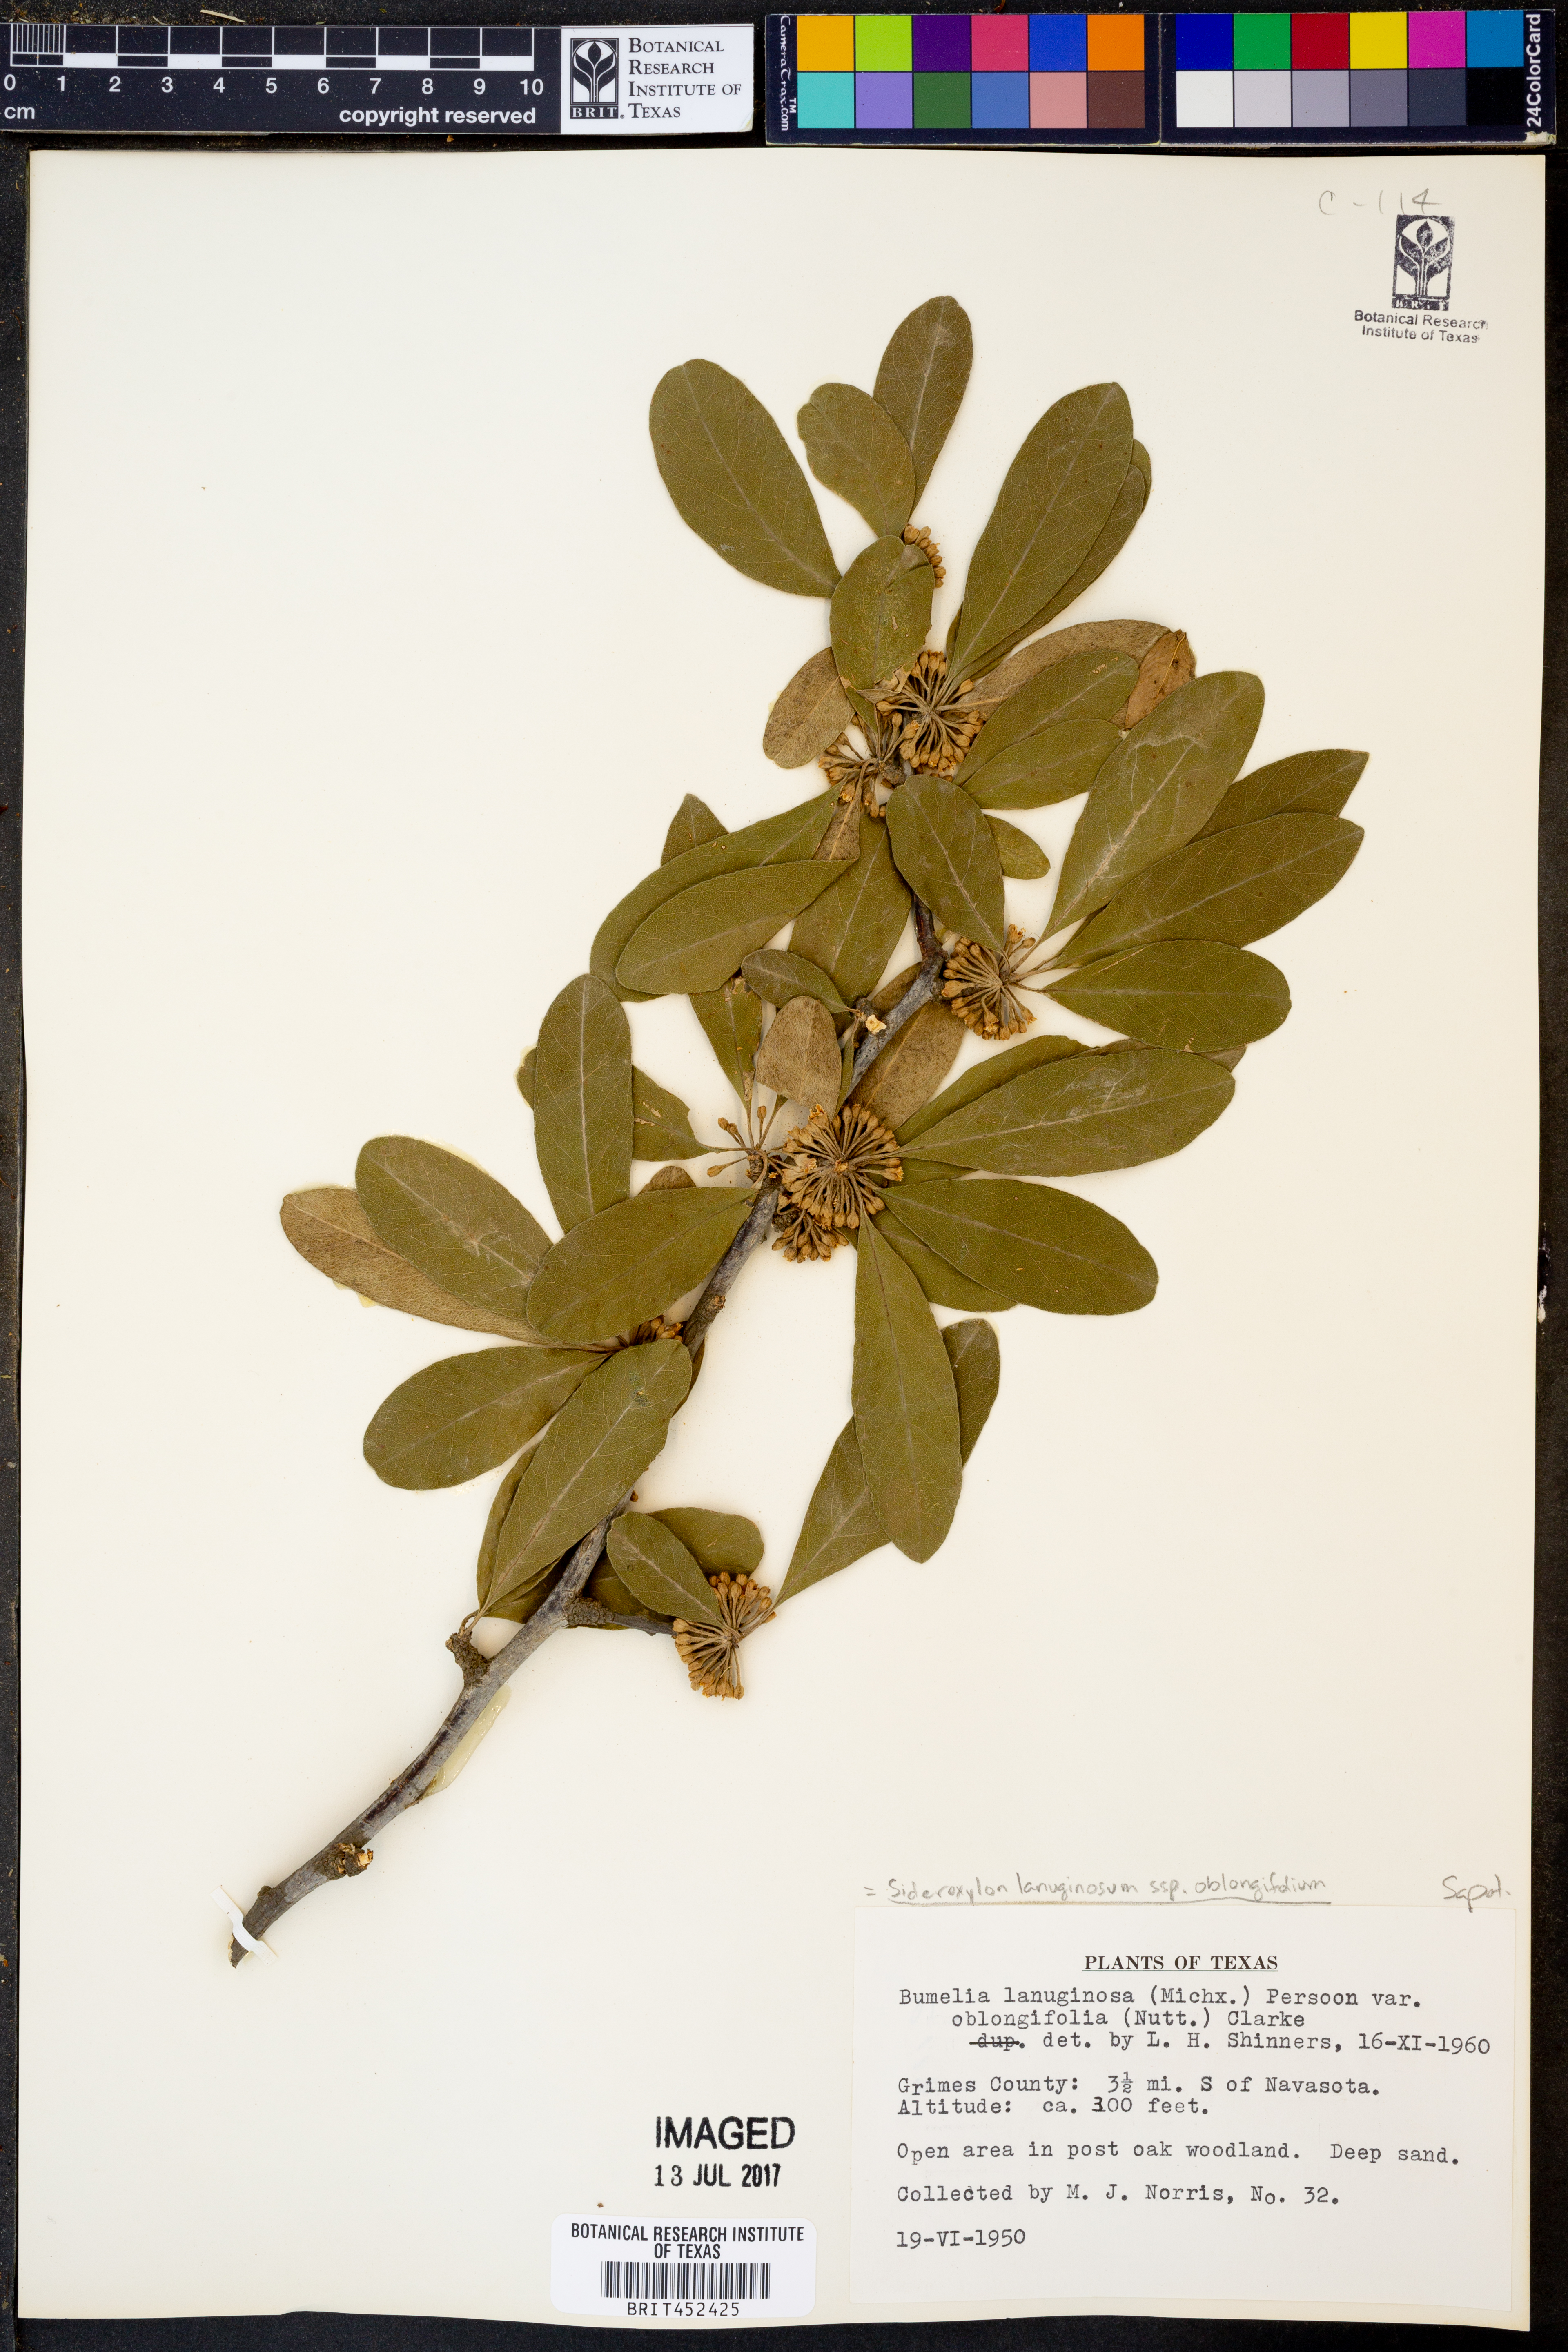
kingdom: Plantae
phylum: Tracheophyta
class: Magnoliopsida
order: Ericales
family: Sapotaceae
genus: Sideroxylon
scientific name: Sideroxylon lanuginosum
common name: Chittamwood
